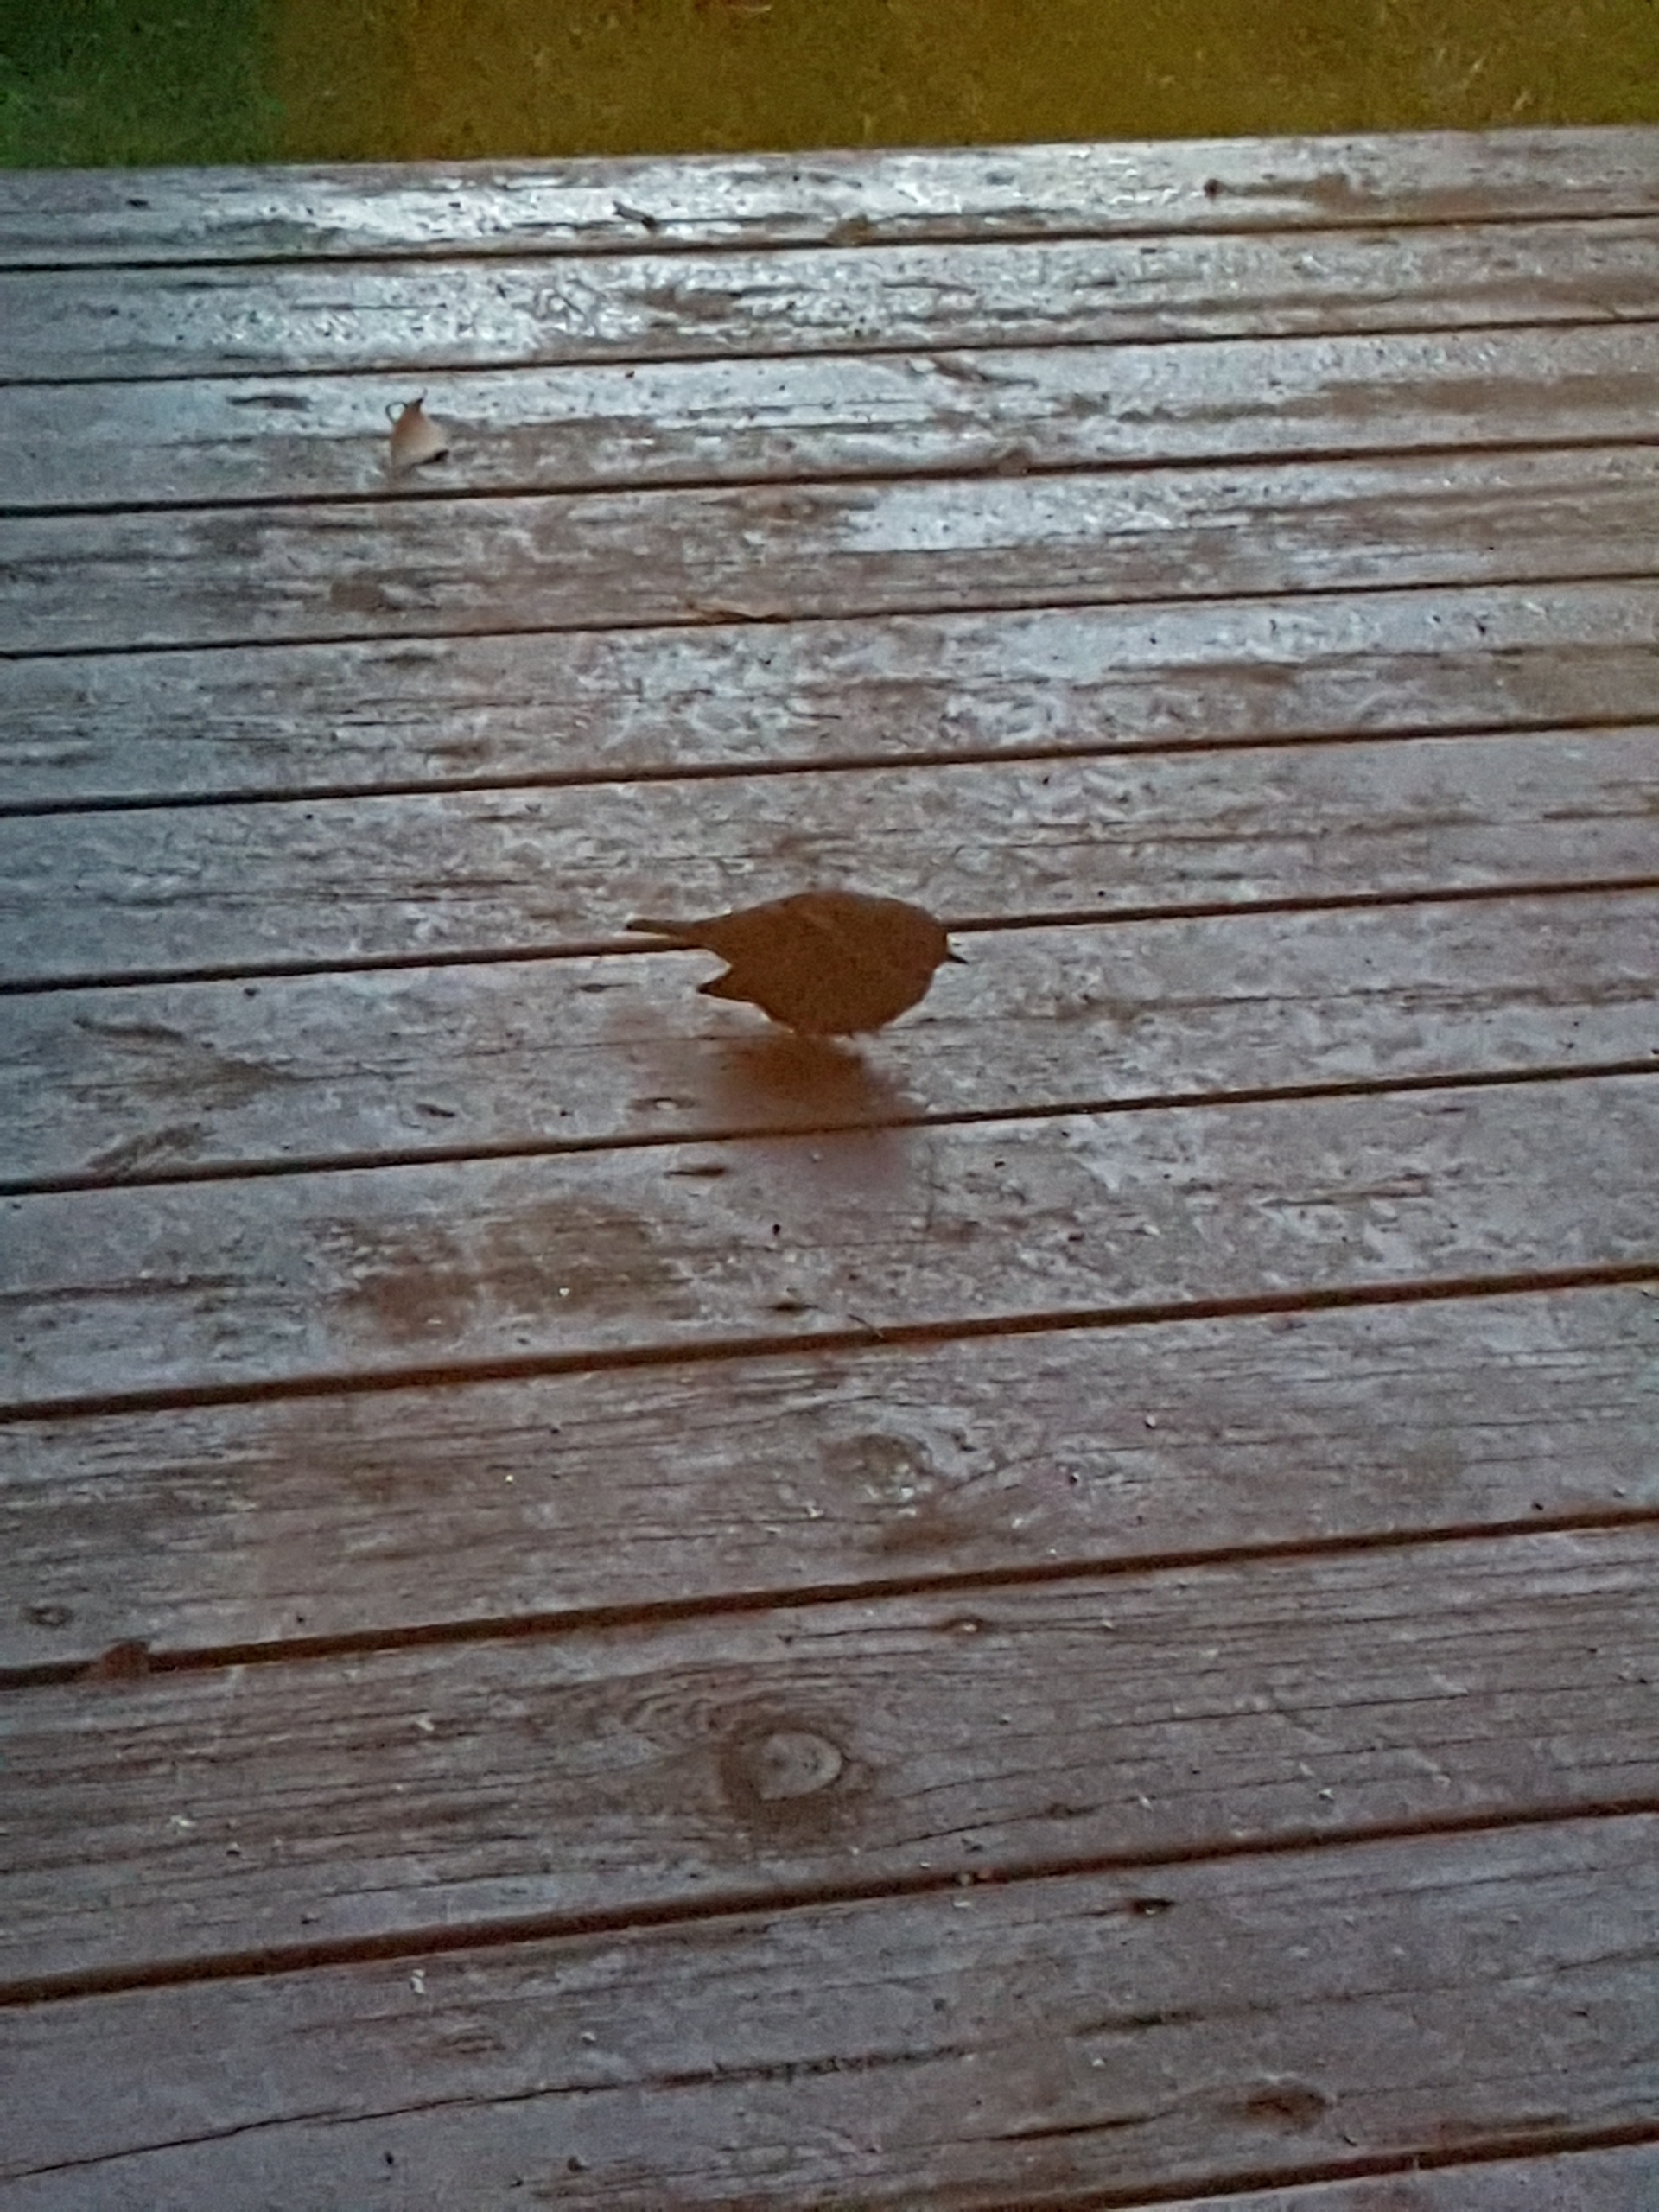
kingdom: Animalia
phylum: Chordata
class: Aves
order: Passeriformes
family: Prunellidae
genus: Prunella
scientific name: Prunella modularis
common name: Jernspurv
